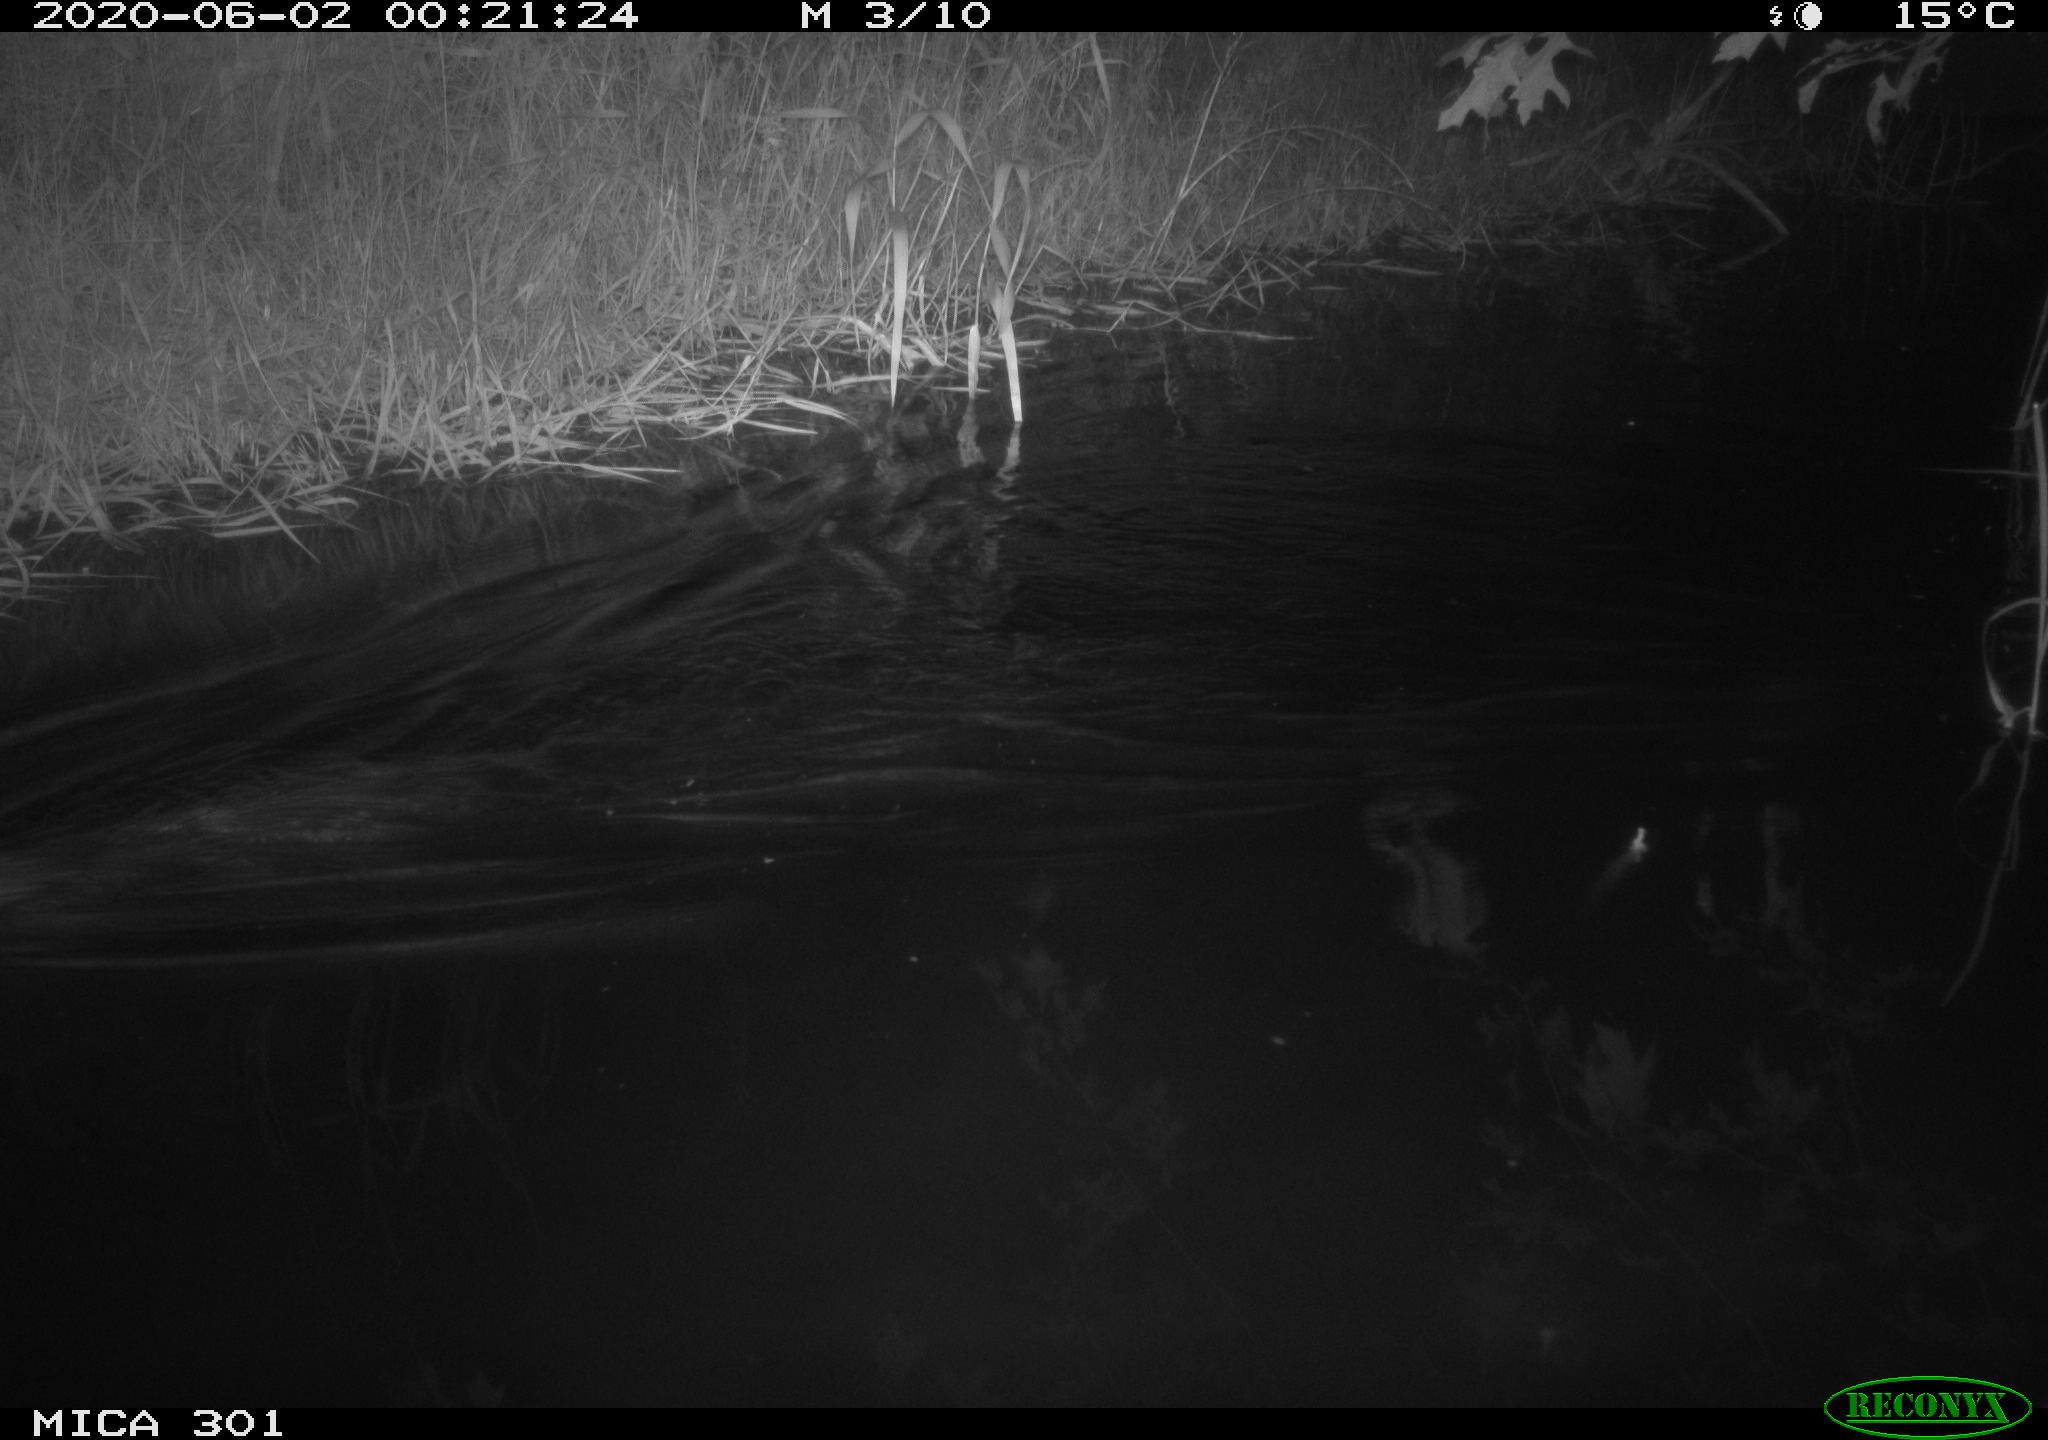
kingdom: Animalia
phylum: Chordata
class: Mammalia
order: Rodentia
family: Castoridae
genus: Castor
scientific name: Castor fiber
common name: Eurasian beaver
